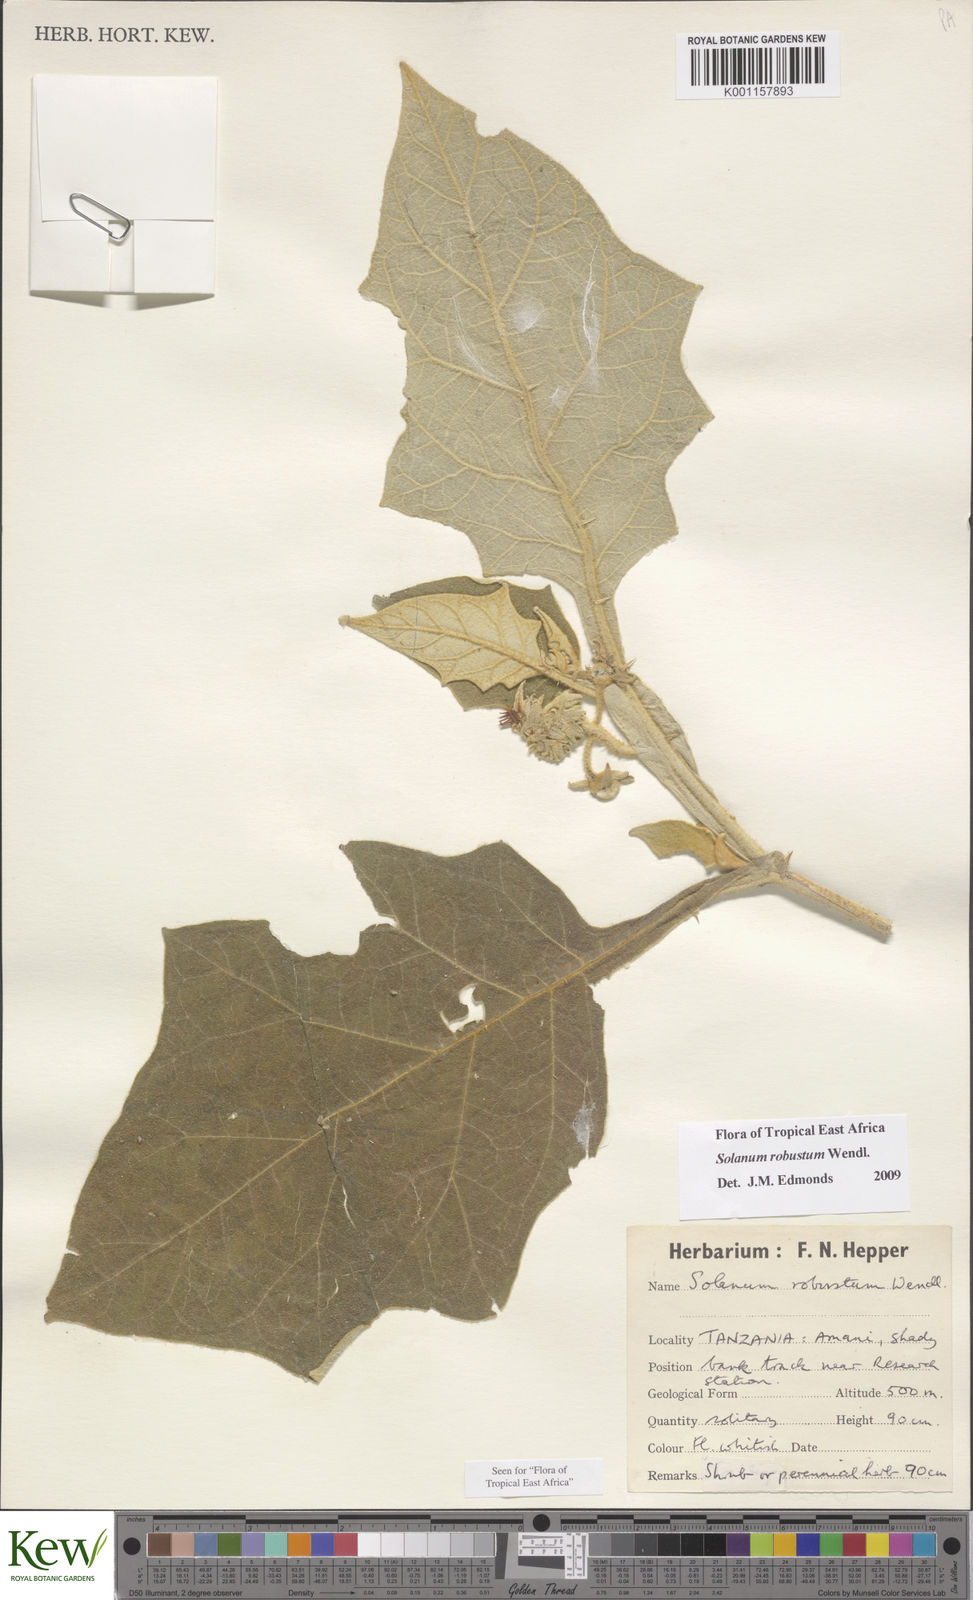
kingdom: Plantae
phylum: Tracheophyta
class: Magnoliopsida
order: Solanales
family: Solanaceae
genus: Solanum
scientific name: Solanum robustum
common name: Shrubby nightshade
